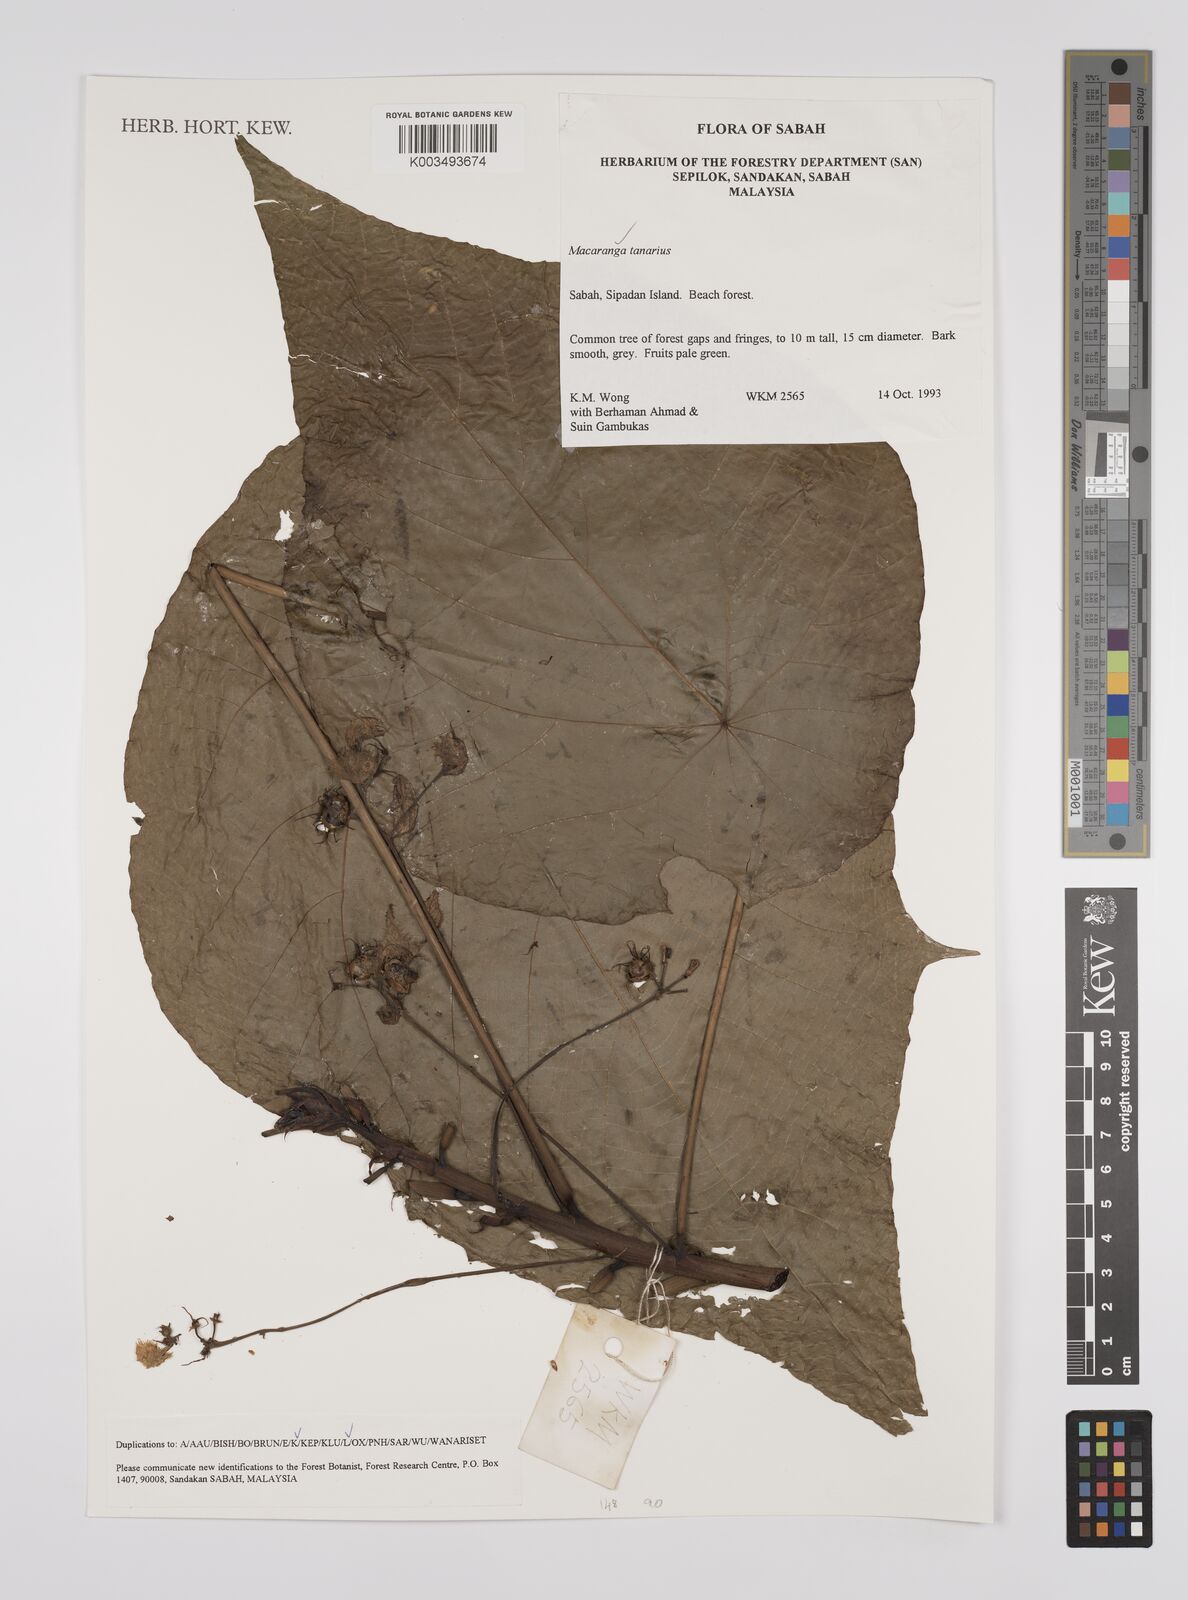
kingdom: Plantae
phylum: Tracheophyta
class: Magnoliopsida
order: Malpighiales
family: Euphorbiaceae
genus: Macaranga
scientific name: Macaranga tanarius
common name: Parasol leaf tree
